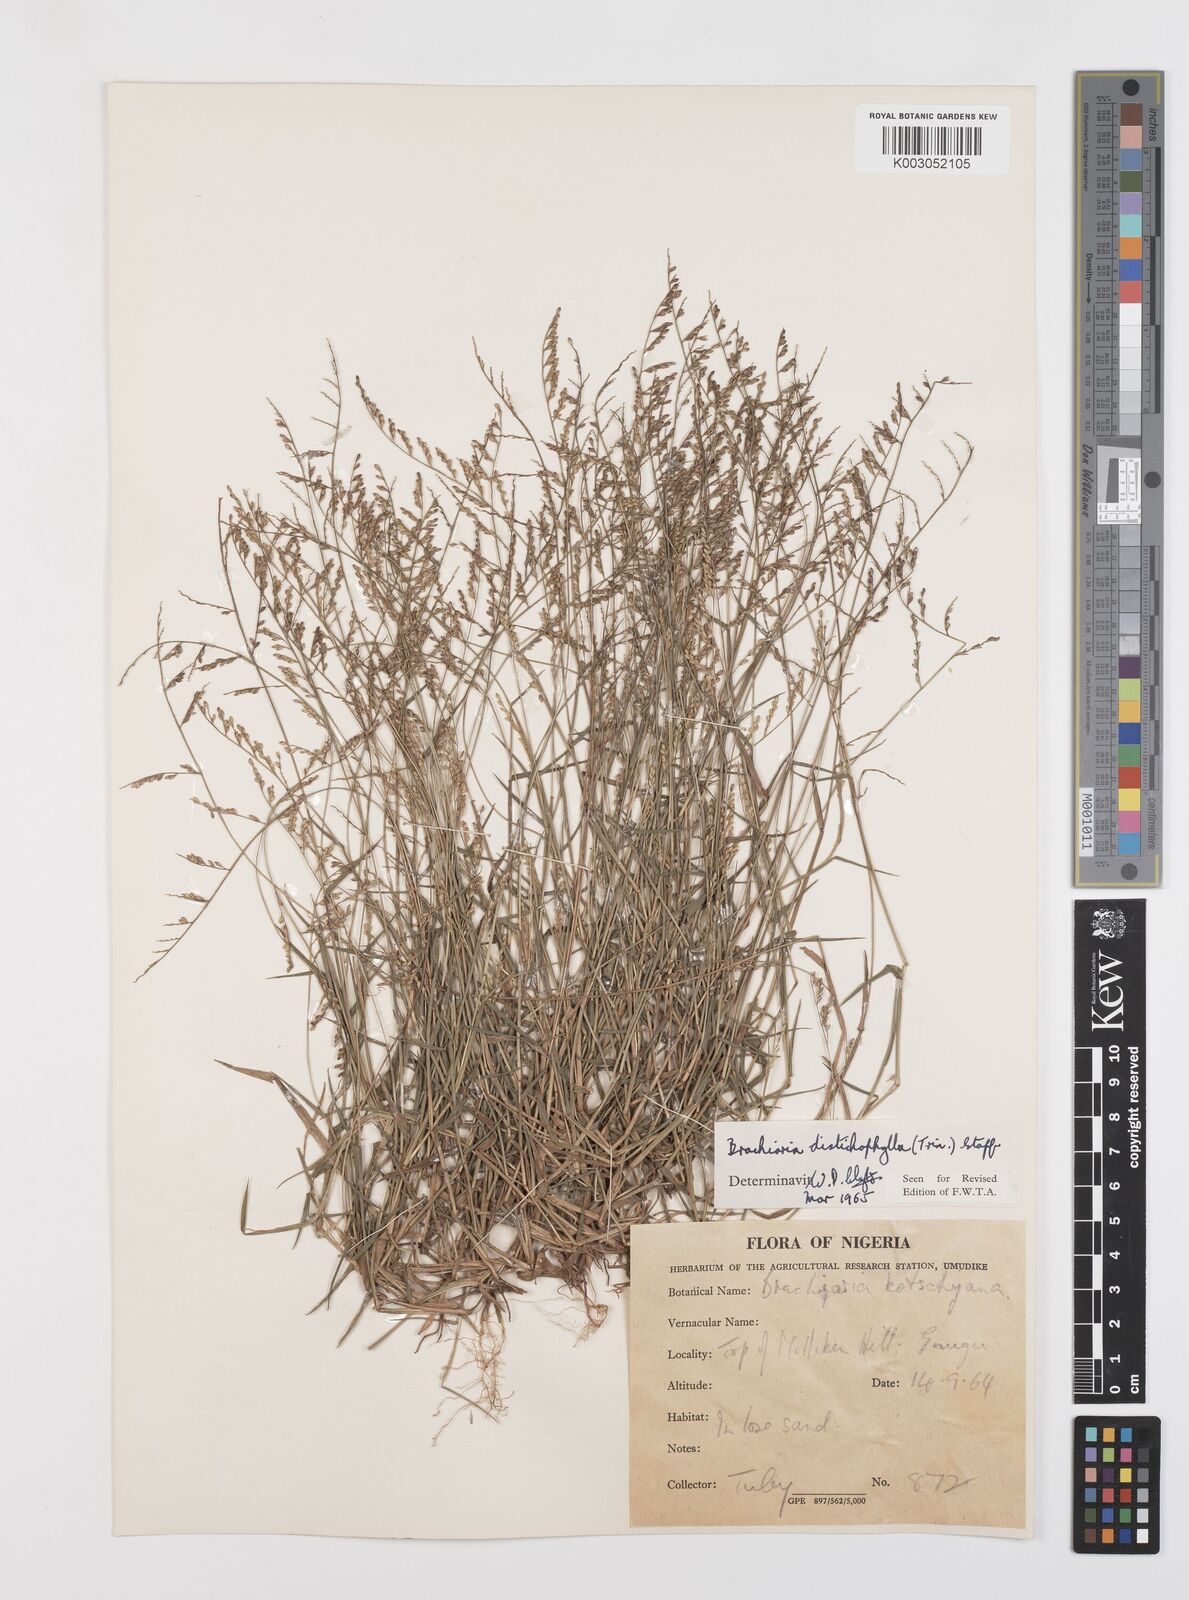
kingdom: Plantae
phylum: Tracheophyta
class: Liliopsida
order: Poales
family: Poaceae
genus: Urochloa
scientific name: Urochloa villosa
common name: Hairy signalgrass
